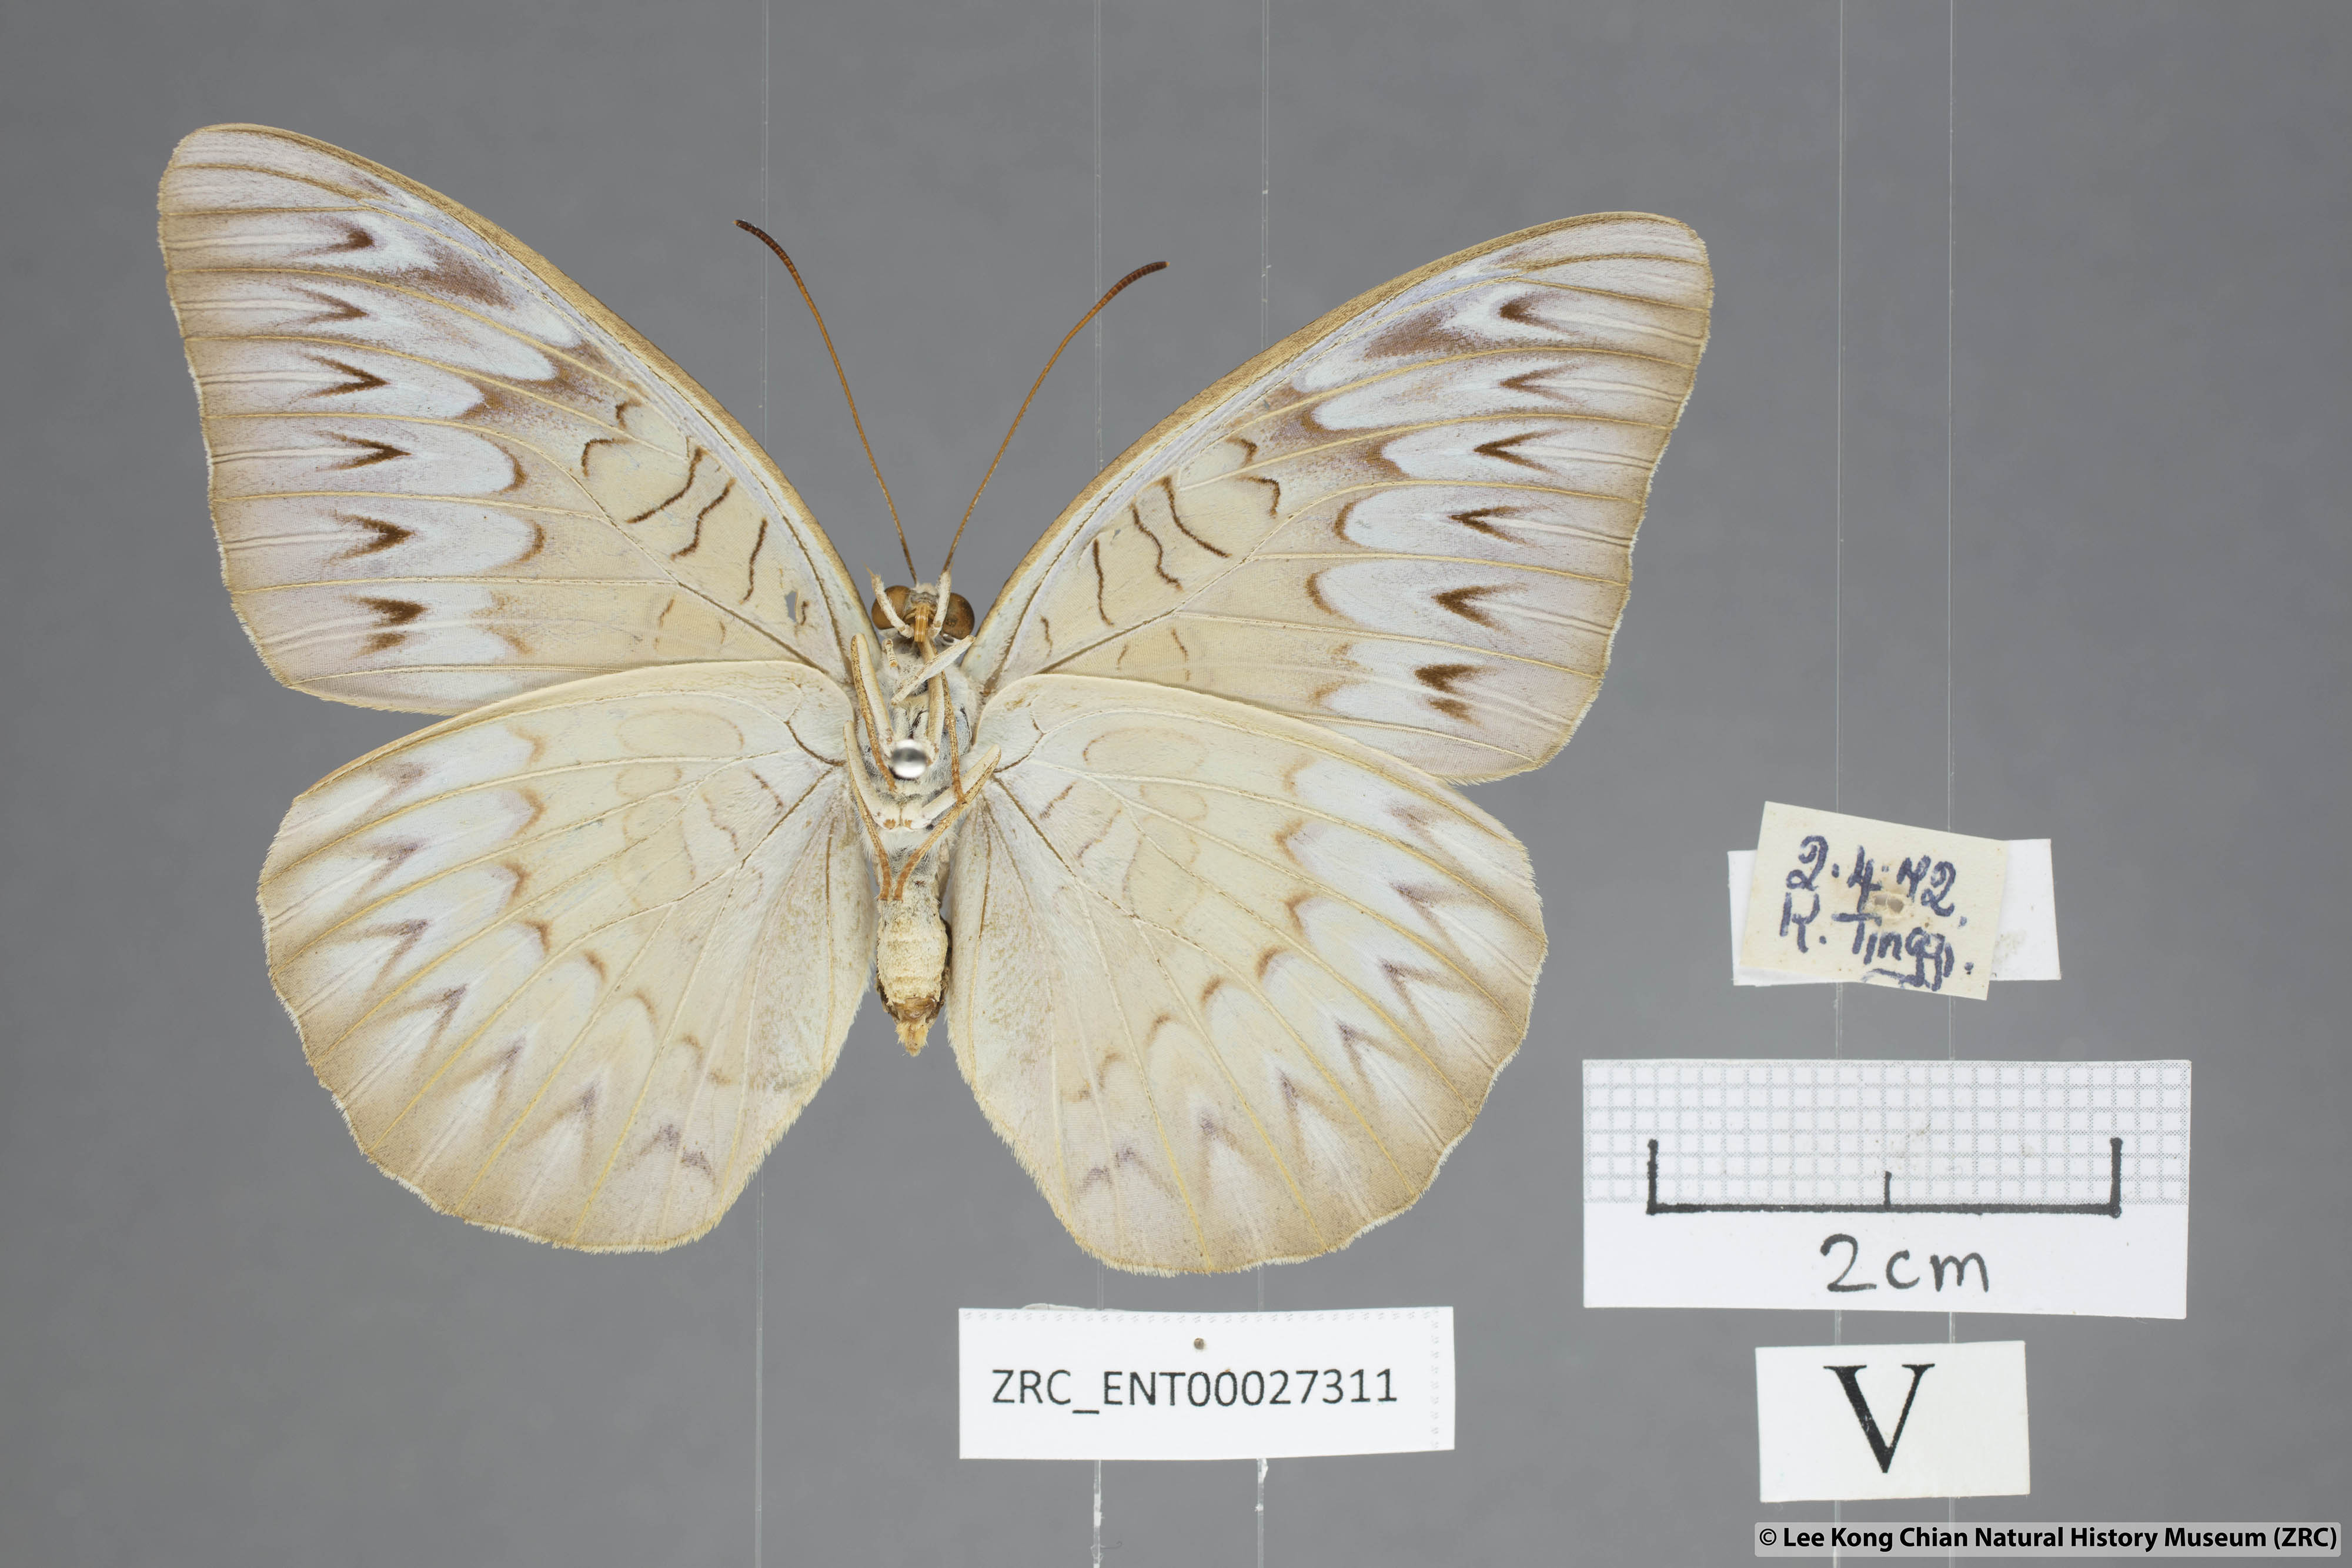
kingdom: Animalia
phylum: Arthropoda
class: Insecta
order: Lepidoptera
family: Nymphalidae
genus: Tanaecia
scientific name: Tanaecia palguna
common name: Long-lined viscount
